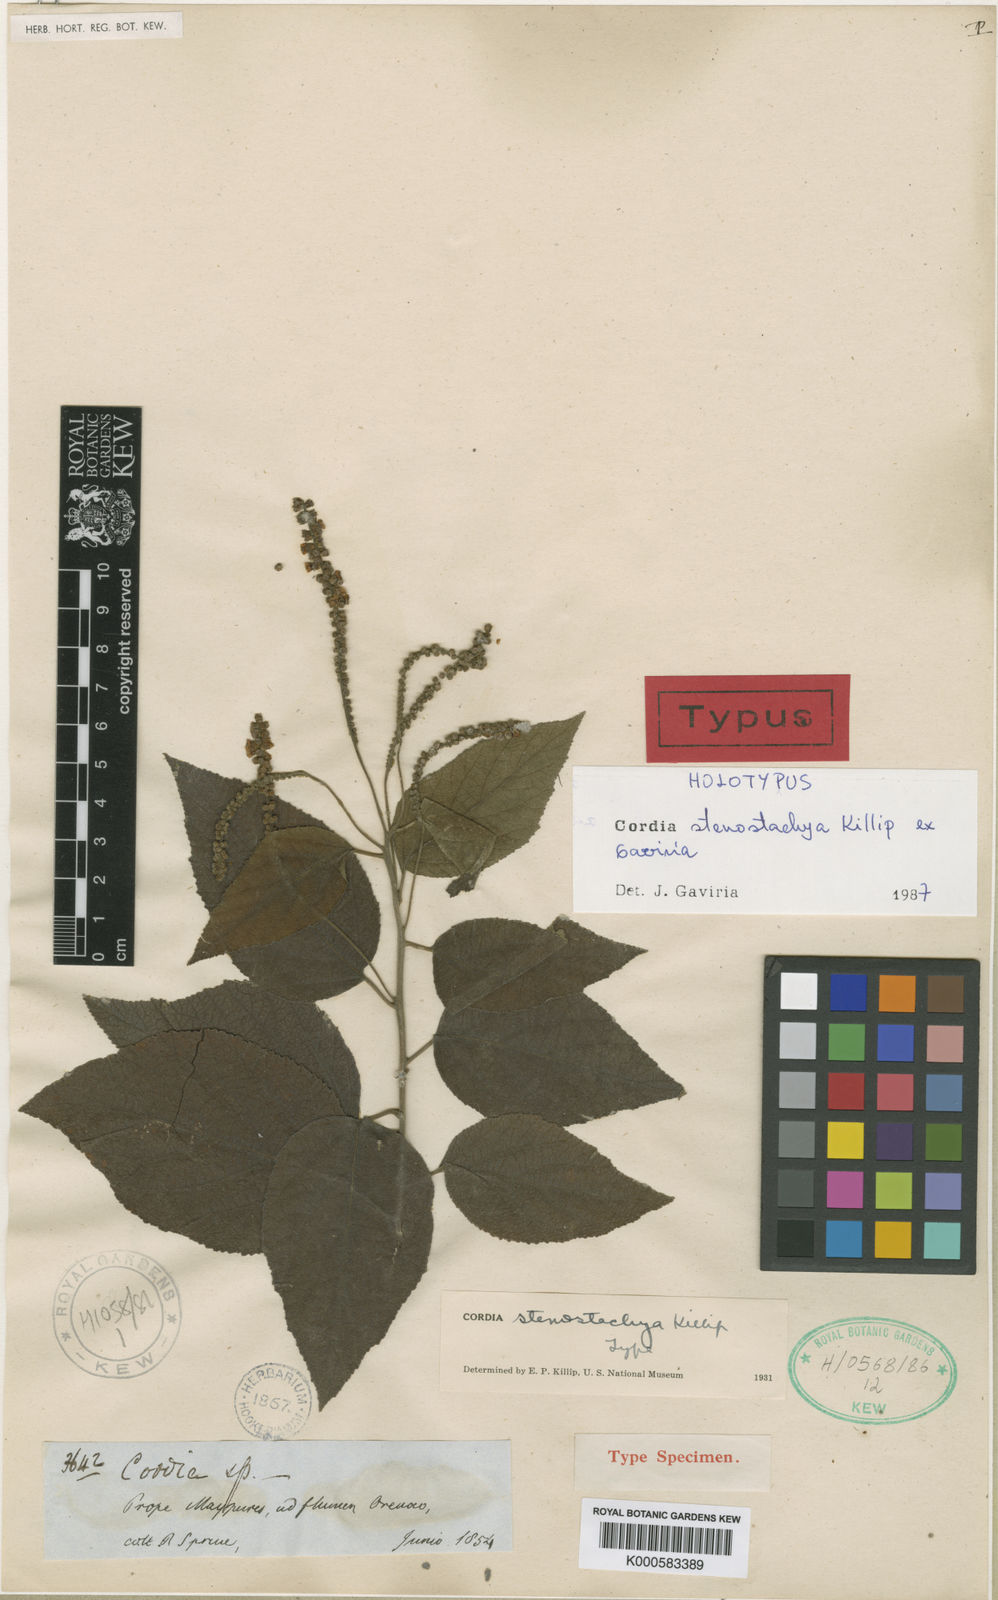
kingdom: Plantae
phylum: Tracheophyta
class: Magnoliopsida
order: Boraginales
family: Cordiaceae
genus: Varronia
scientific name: Varronia stenostachya
